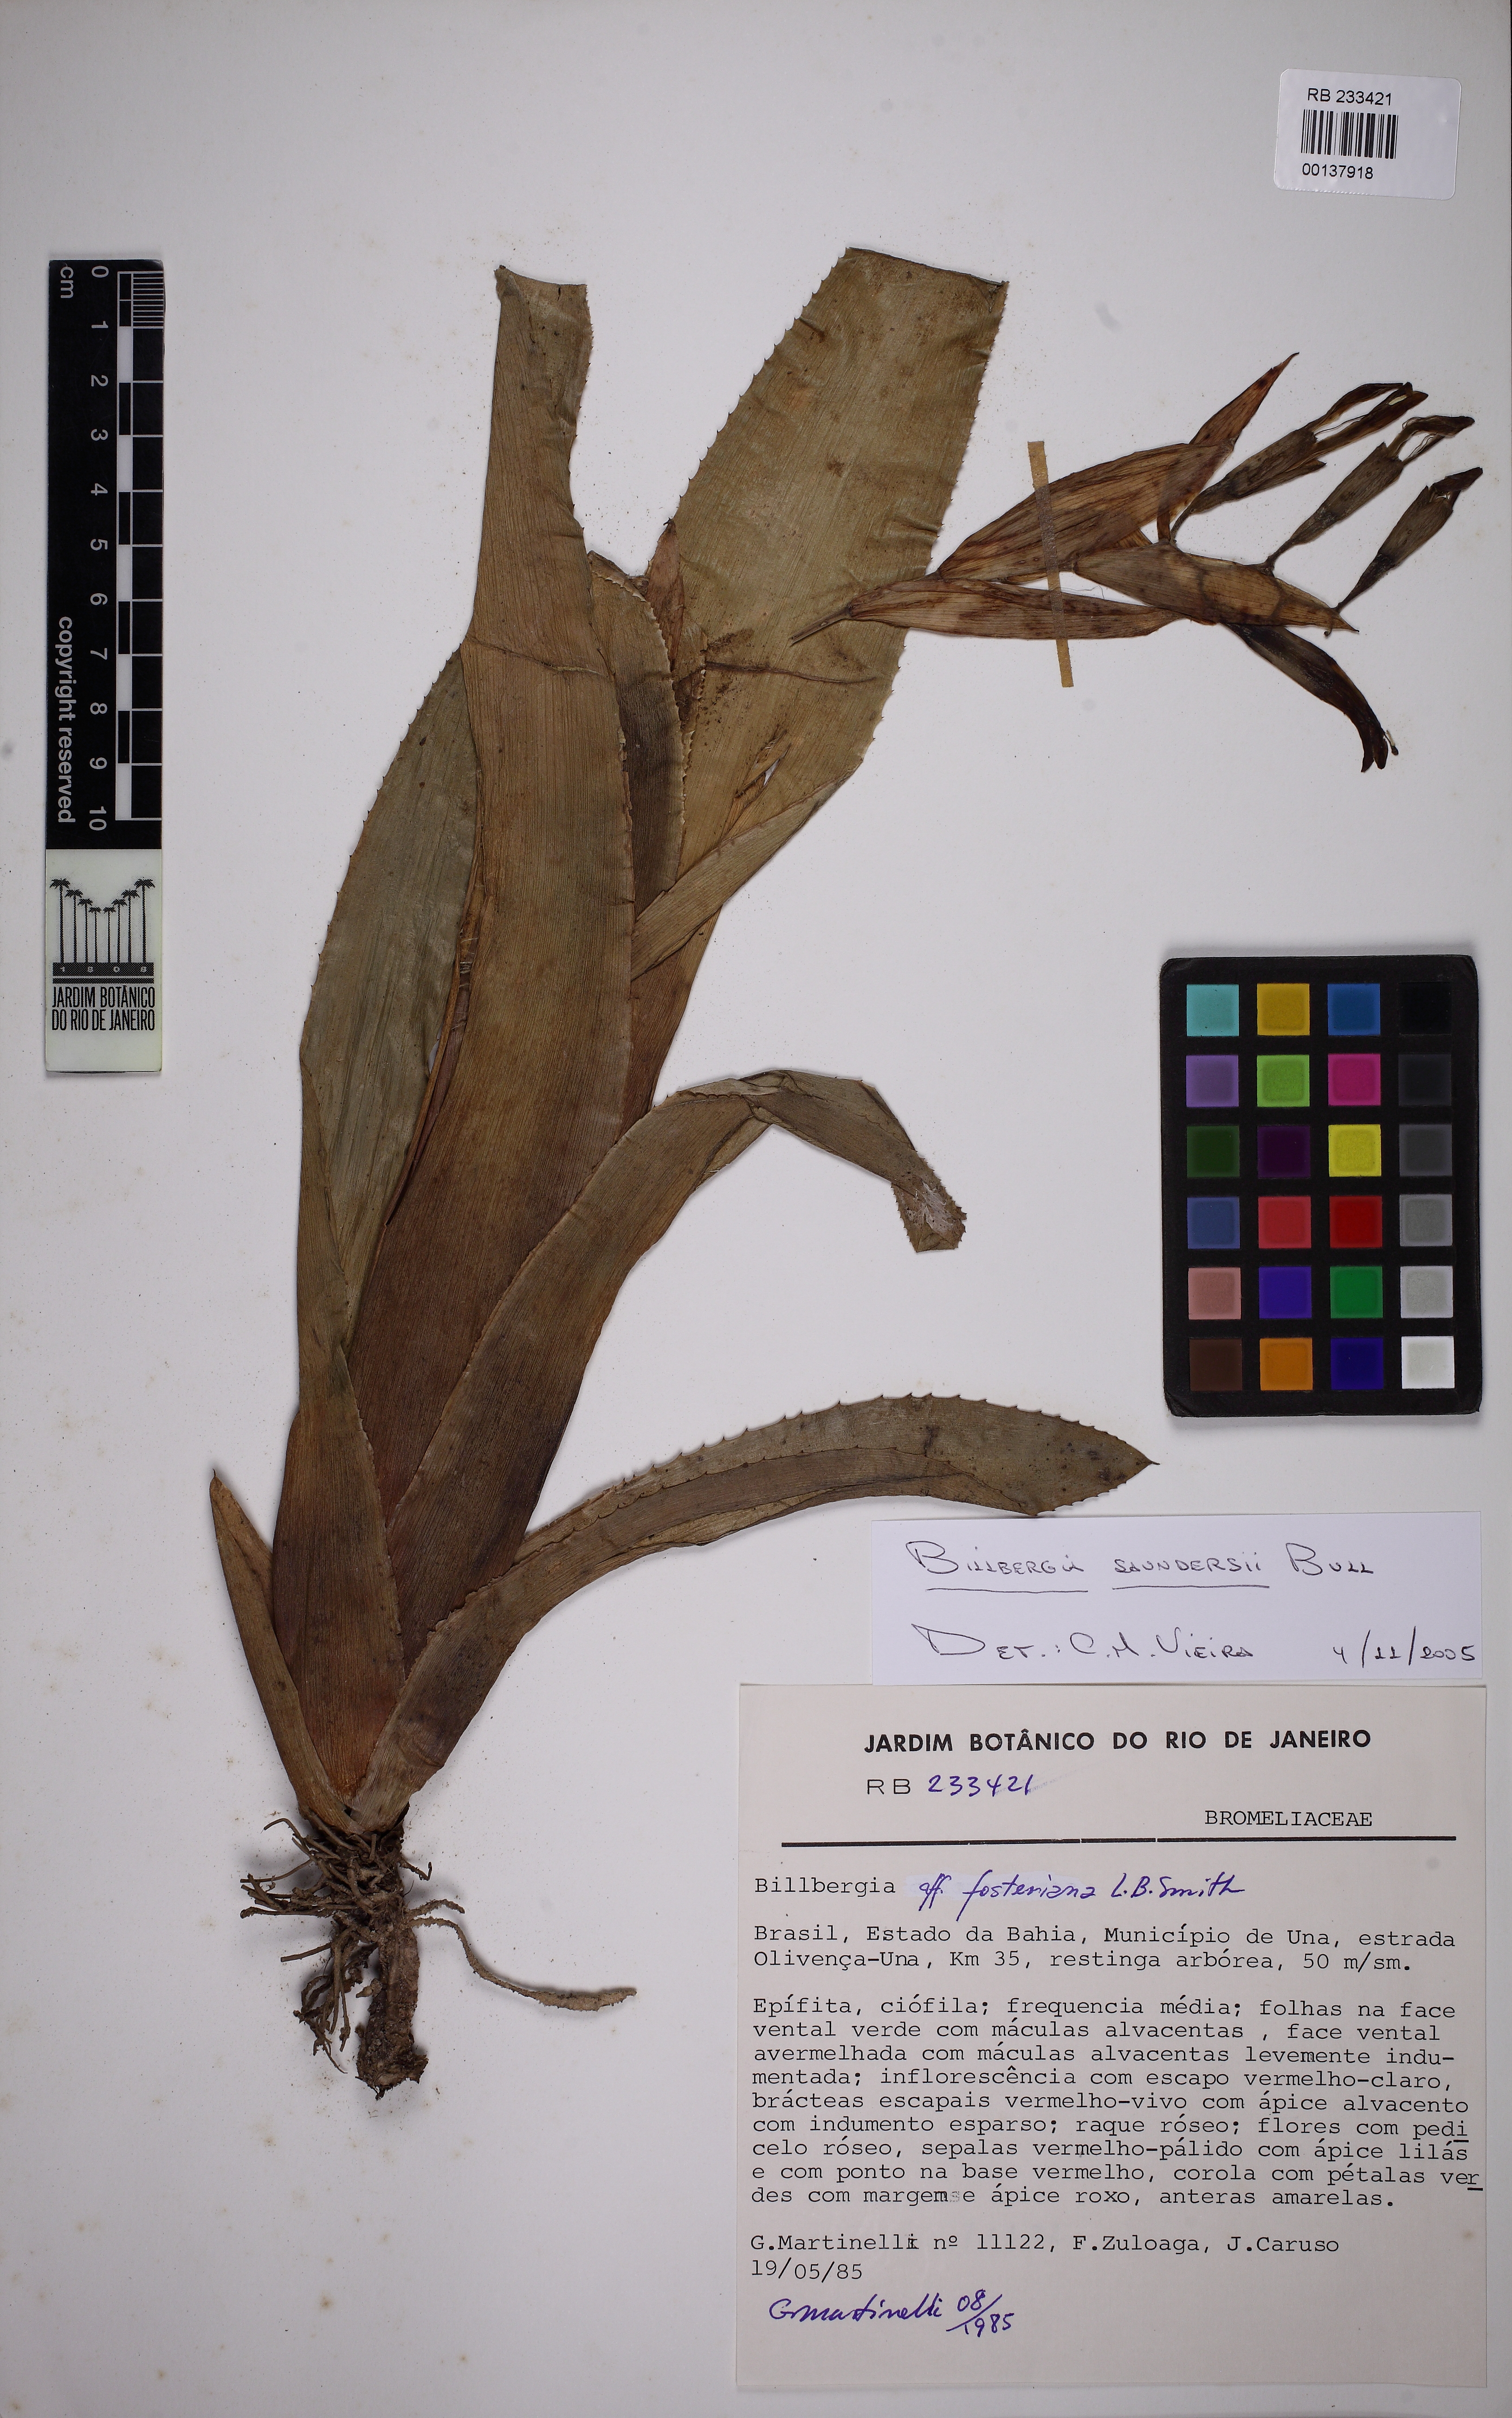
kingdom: Plantae
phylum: Tracheophyta
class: Liliopsida
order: Poales
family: Bromeliaceae
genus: Billbergia
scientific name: Billbergia saundersii
